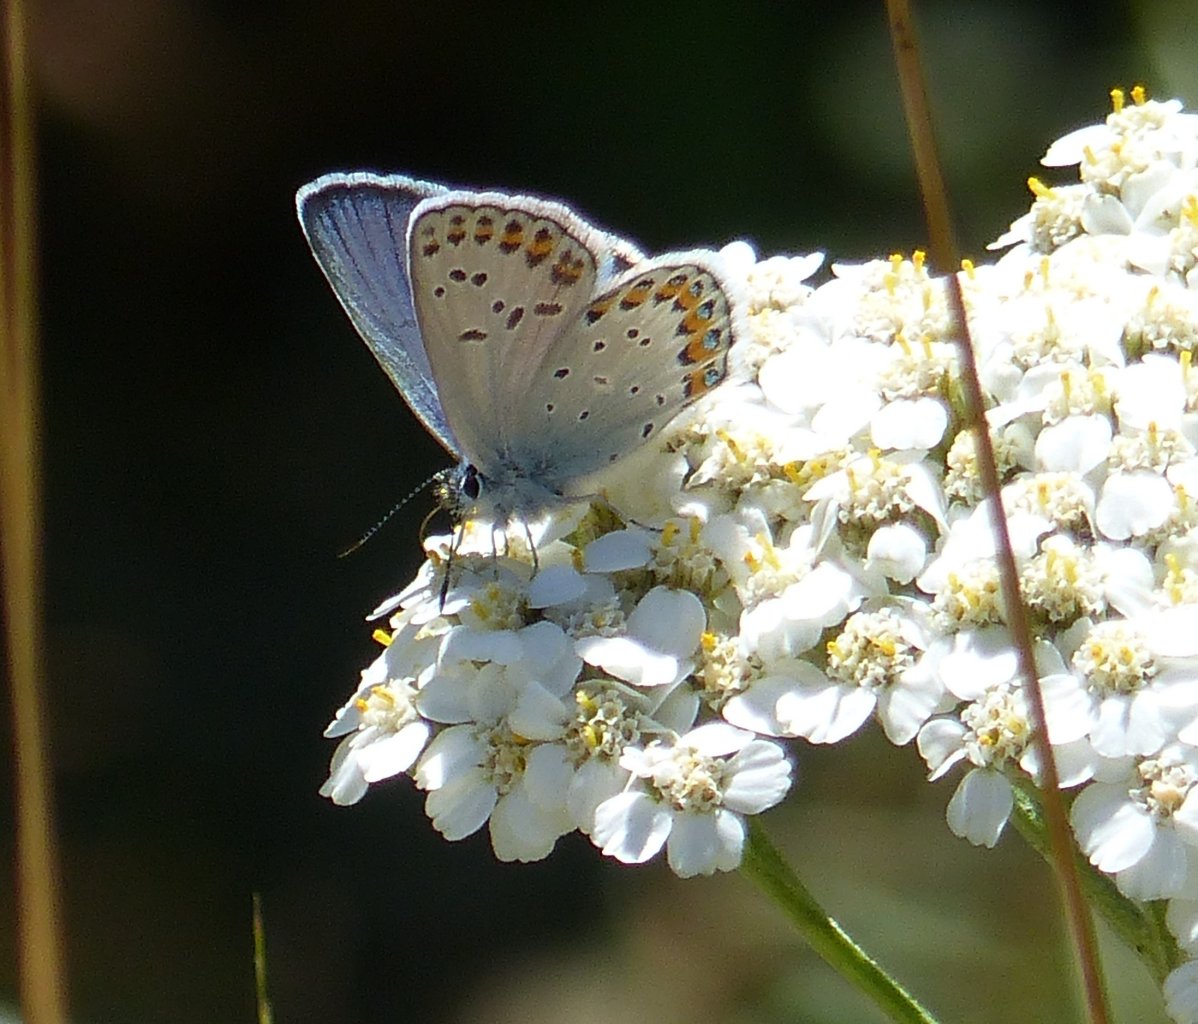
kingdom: Animalia
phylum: Arthropoda
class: Insecta
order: Lepidoptera
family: Lycaenidae
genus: Lycaeides
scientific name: Lycaeides melissa
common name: Melissa Blue
